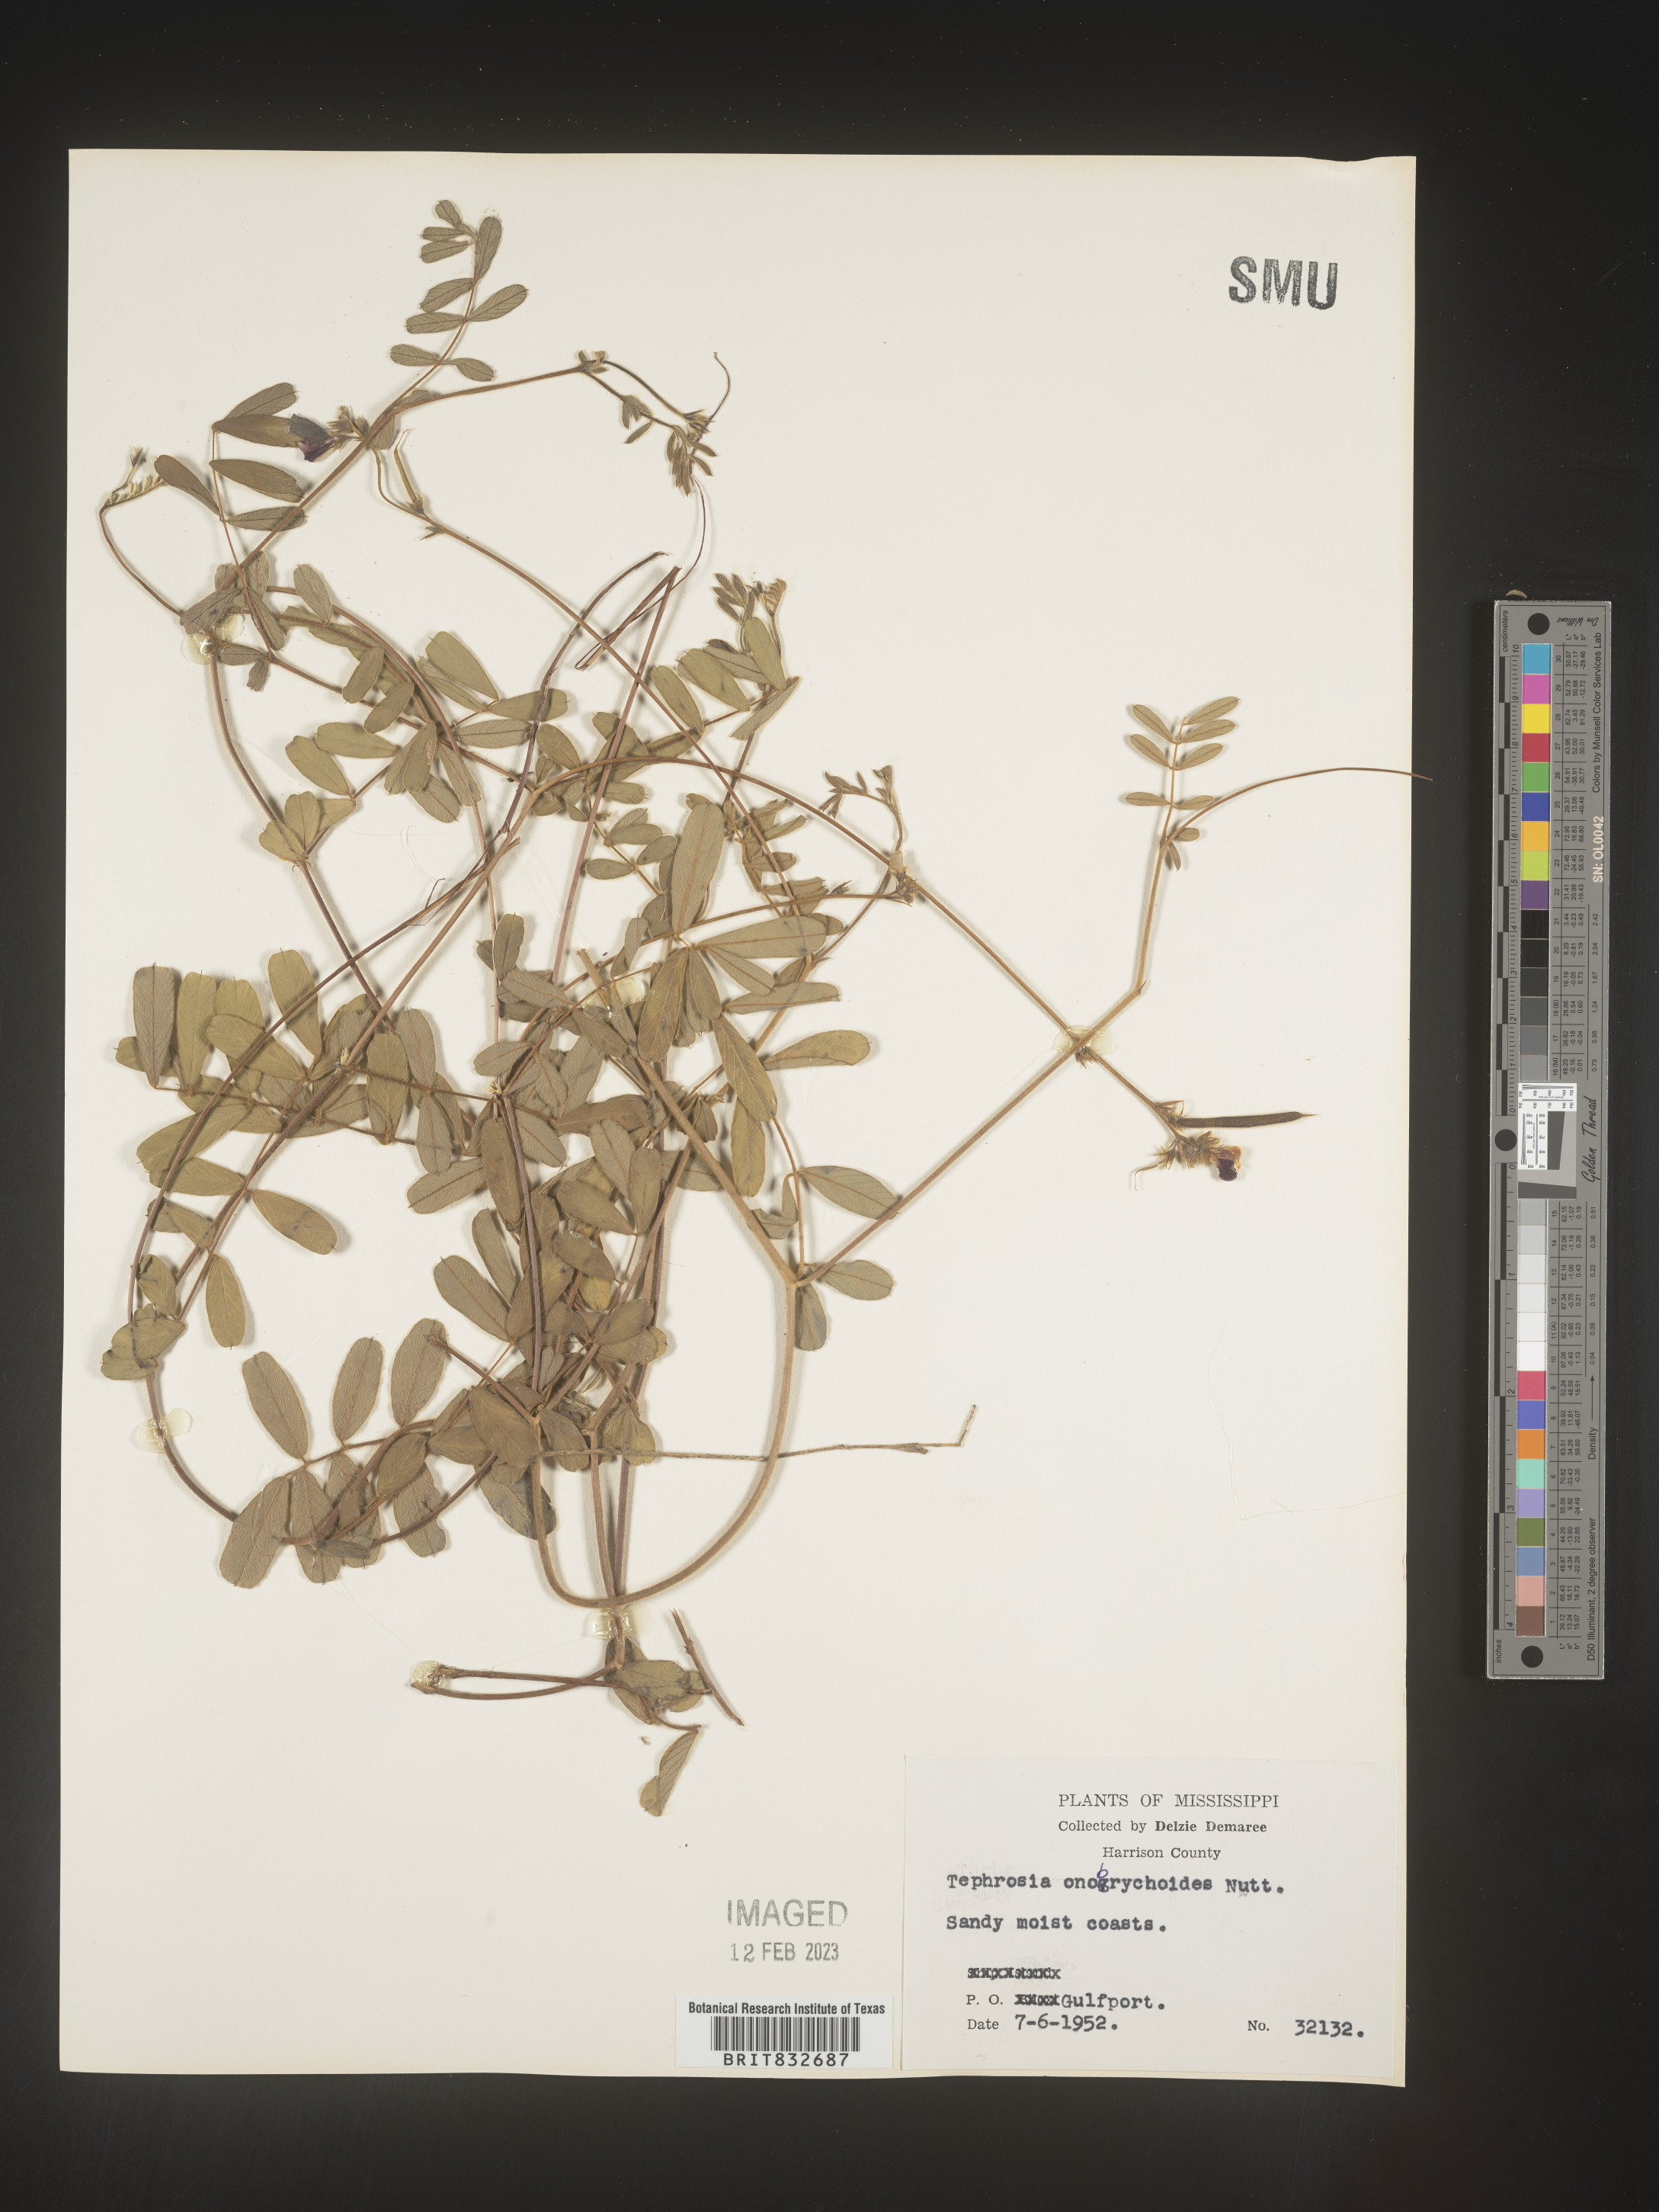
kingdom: Plantae
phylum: Tracheophyta
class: Magnoliopsida
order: Fabales
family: Fabaceae
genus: Tephrosia
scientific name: Tephrosia onobrychoides
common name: Multi-bloom hoary-pea
